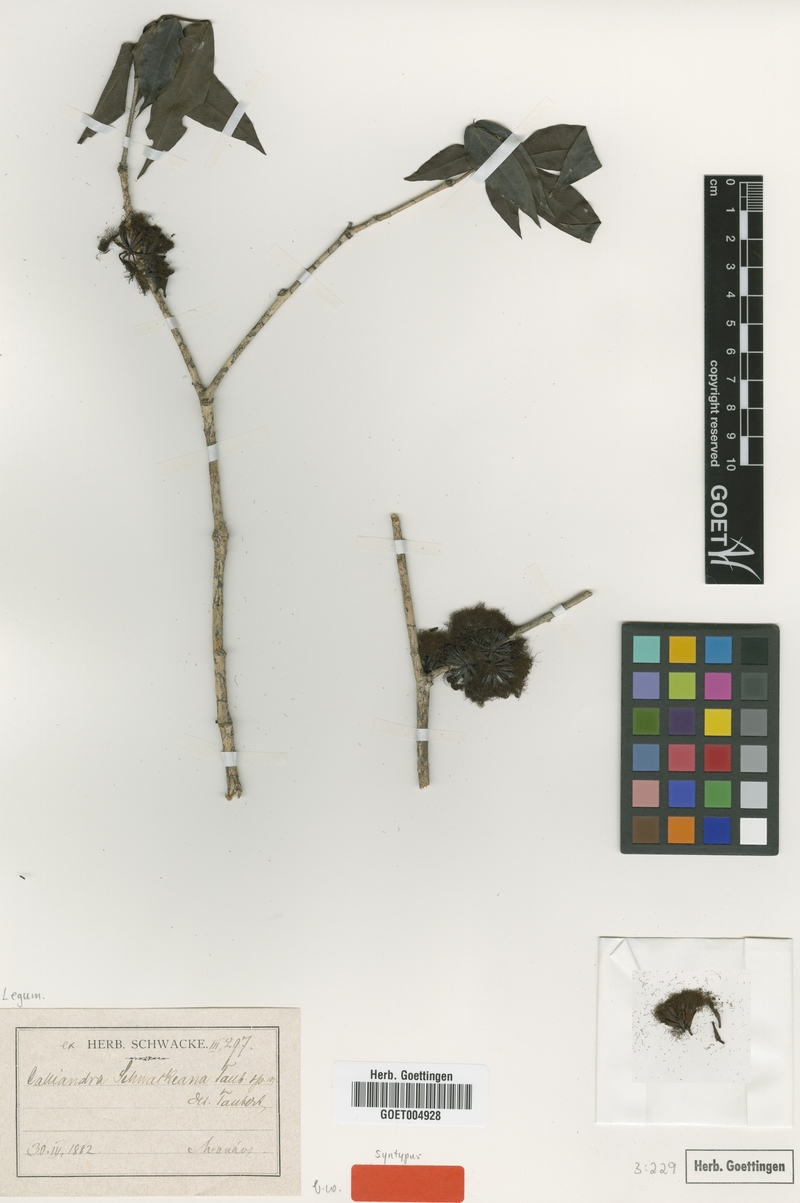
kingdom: Plantae
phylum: Tracheophyta
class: Magnoliopsida
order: Fabales
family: Fabaceae
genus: Zygia
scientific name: Zygia cataractae
